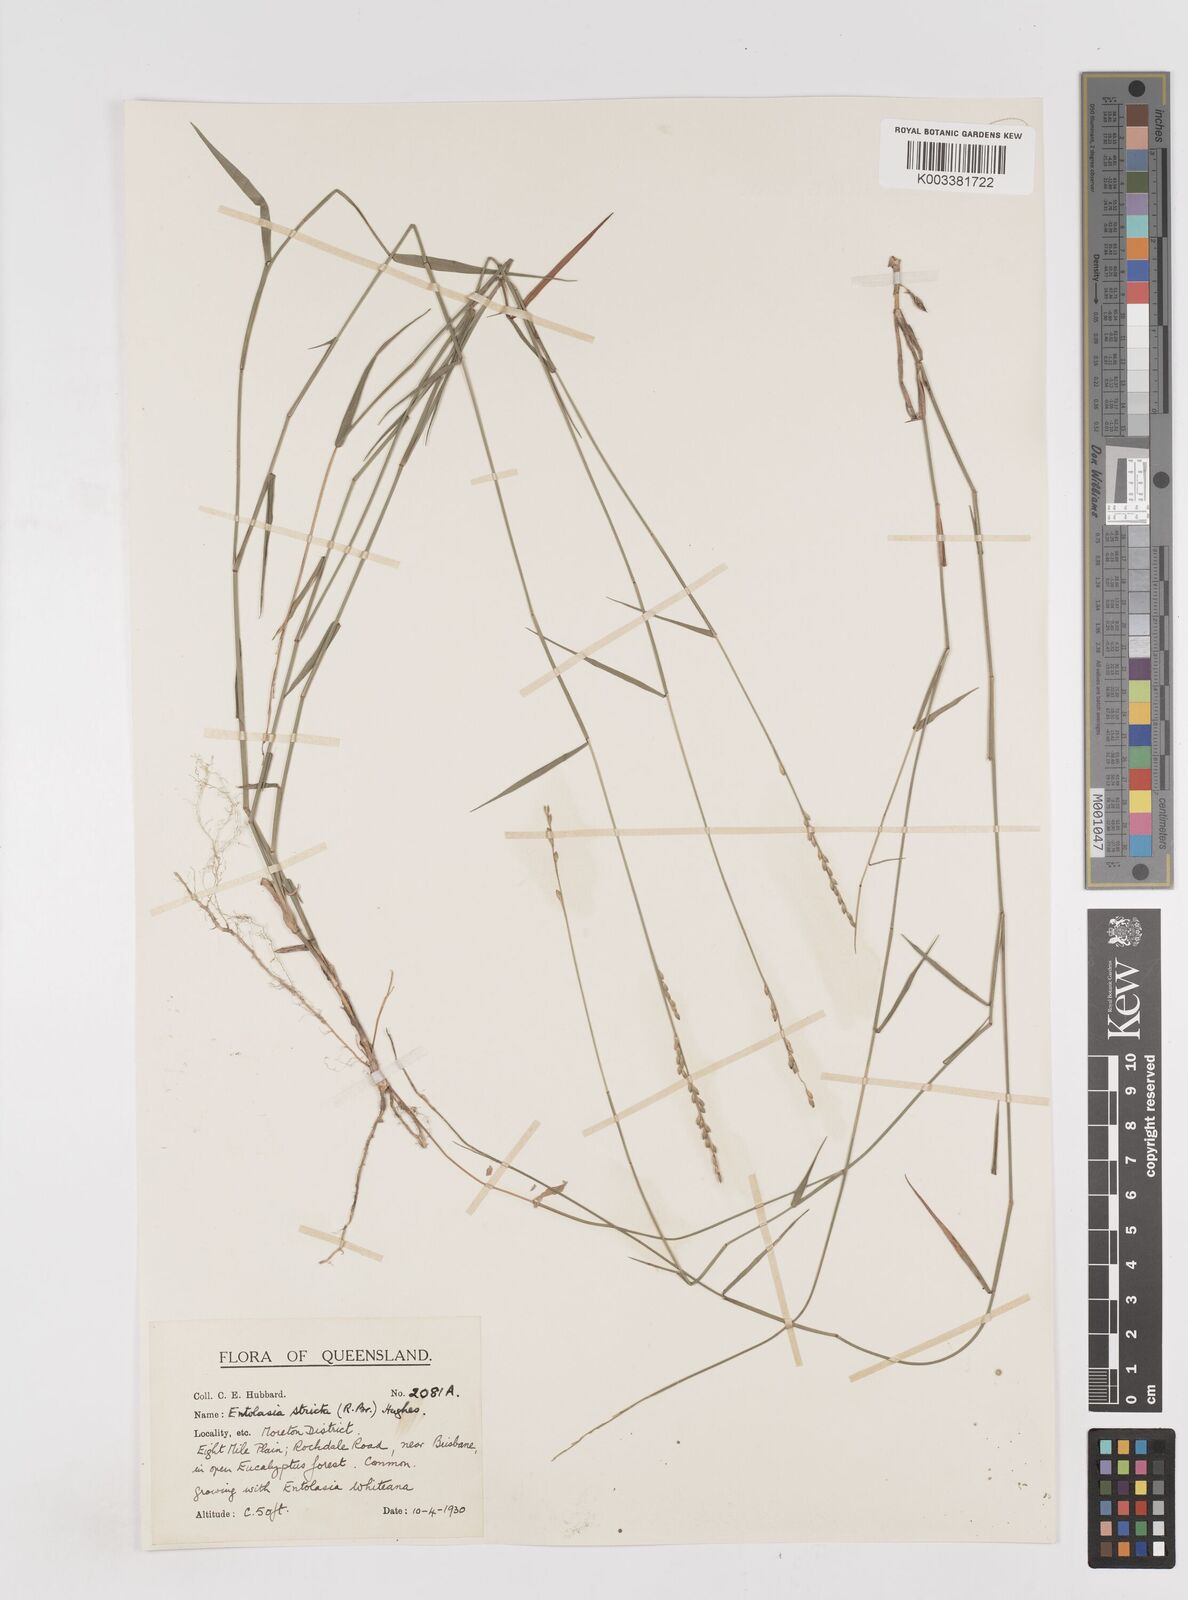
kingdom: Plantae
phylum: Tracheophyta
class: Liliopsida
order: Poales
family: Poaceae
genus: Entolasia
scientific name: Entolasia stricta
